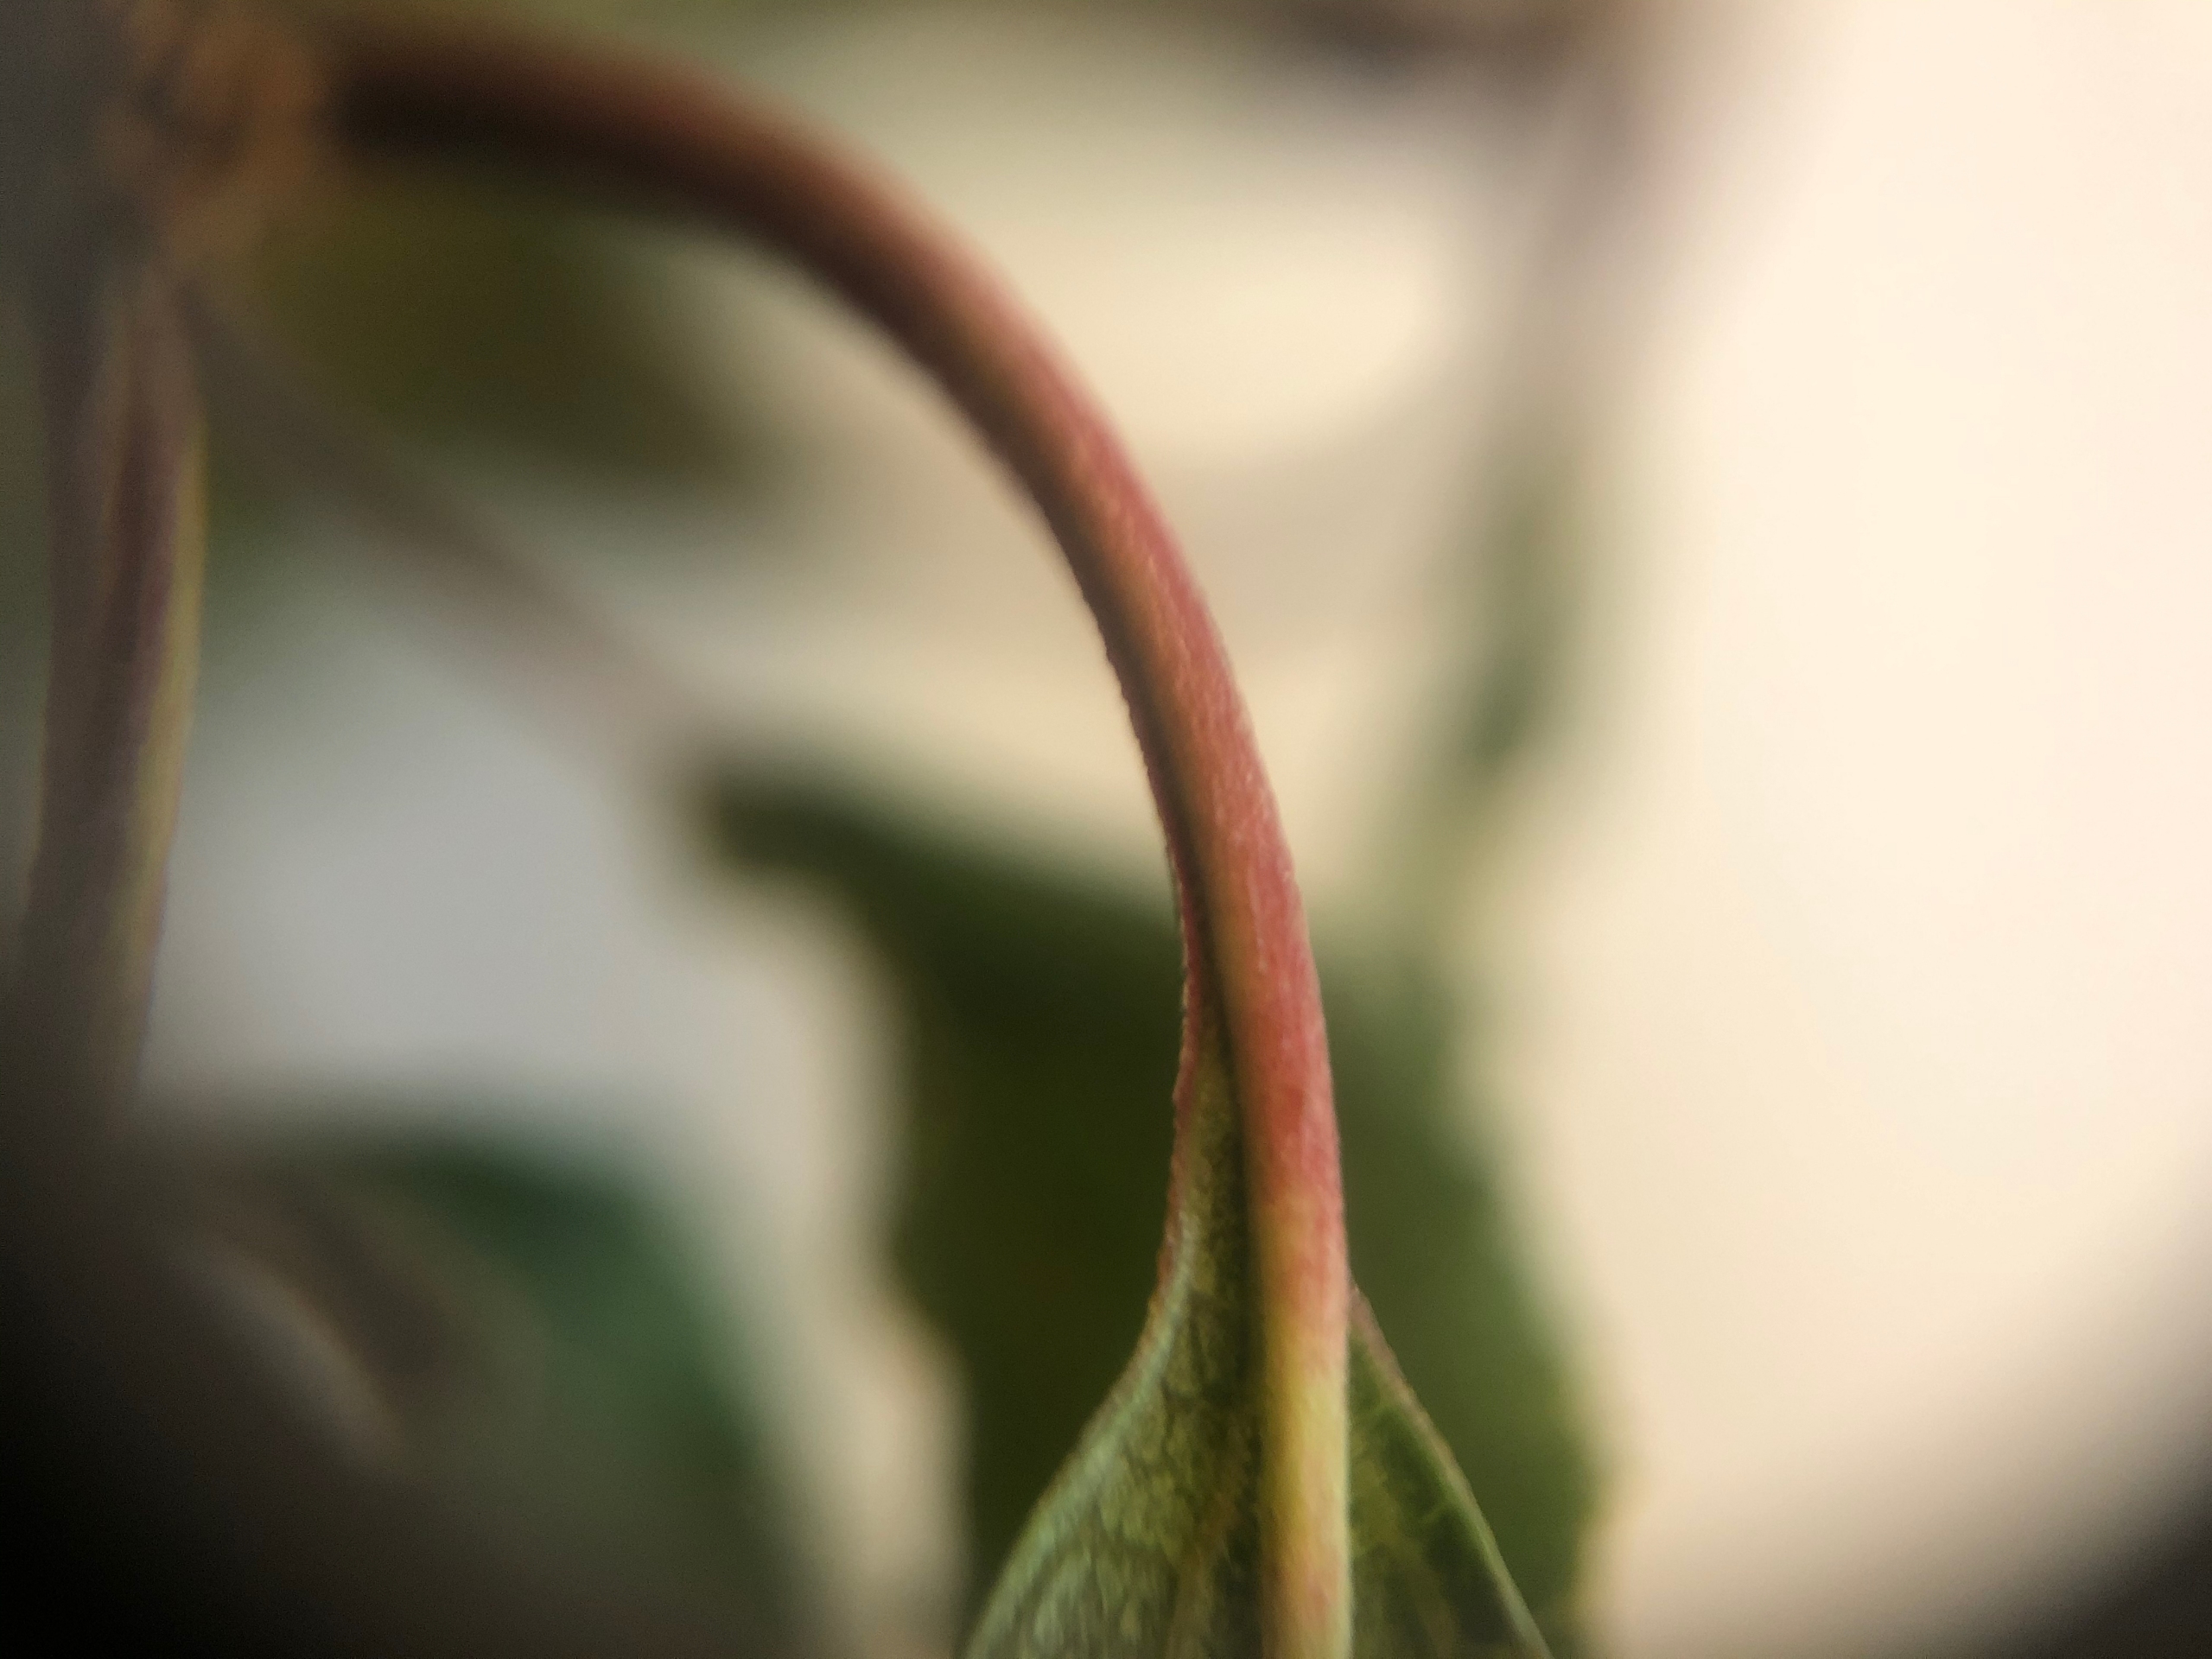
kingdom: Plantae
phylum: Tracheophyta
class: Magnoliopsida
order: Rosales
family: Rosaceae
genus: Prunus
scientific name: Prunus cerasifera
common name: Mirabel
